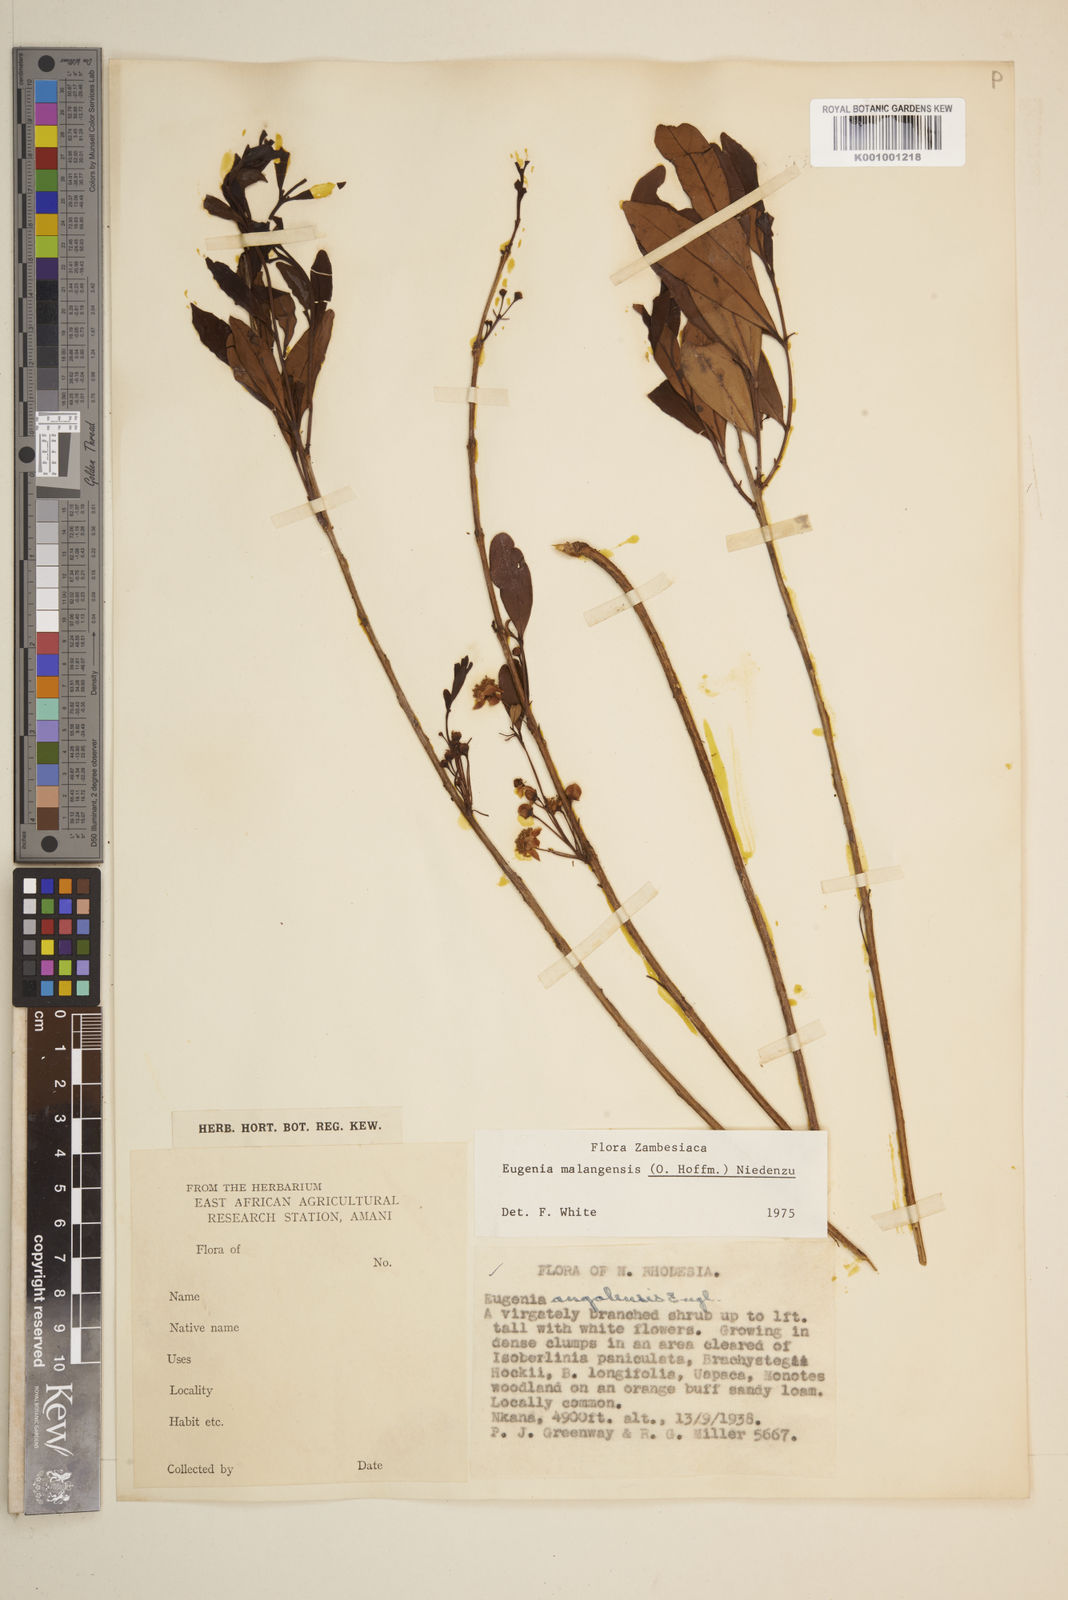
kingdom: Plantae
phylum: Tracheophyta
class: Magnoliopsida
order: Myrtales
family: Myrtaceae
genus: Eugenia
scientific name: Eugenia malangensis
